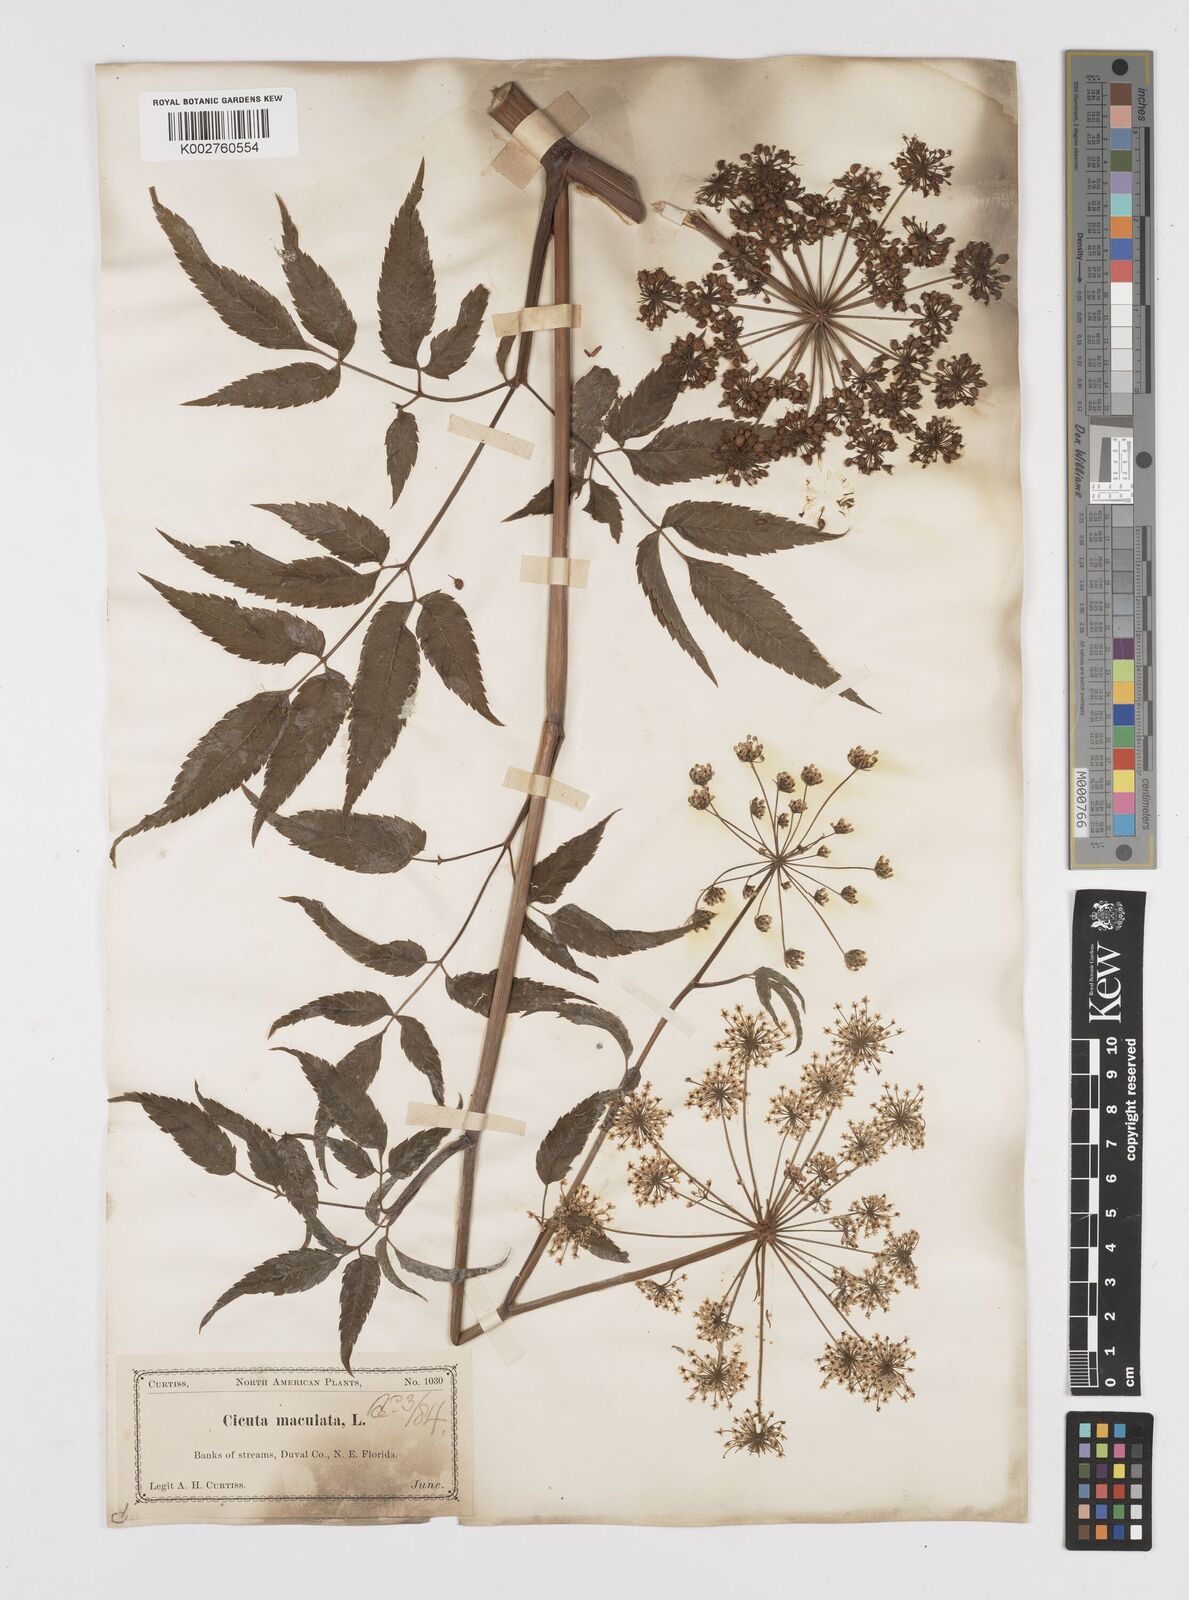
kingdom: Plantae
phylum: Tracheophyta
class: Magnoliopsida
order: Apiales
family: Apiaceae
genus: Cicuta
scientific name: Cicuta douglasii
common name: Western water-hemlock
